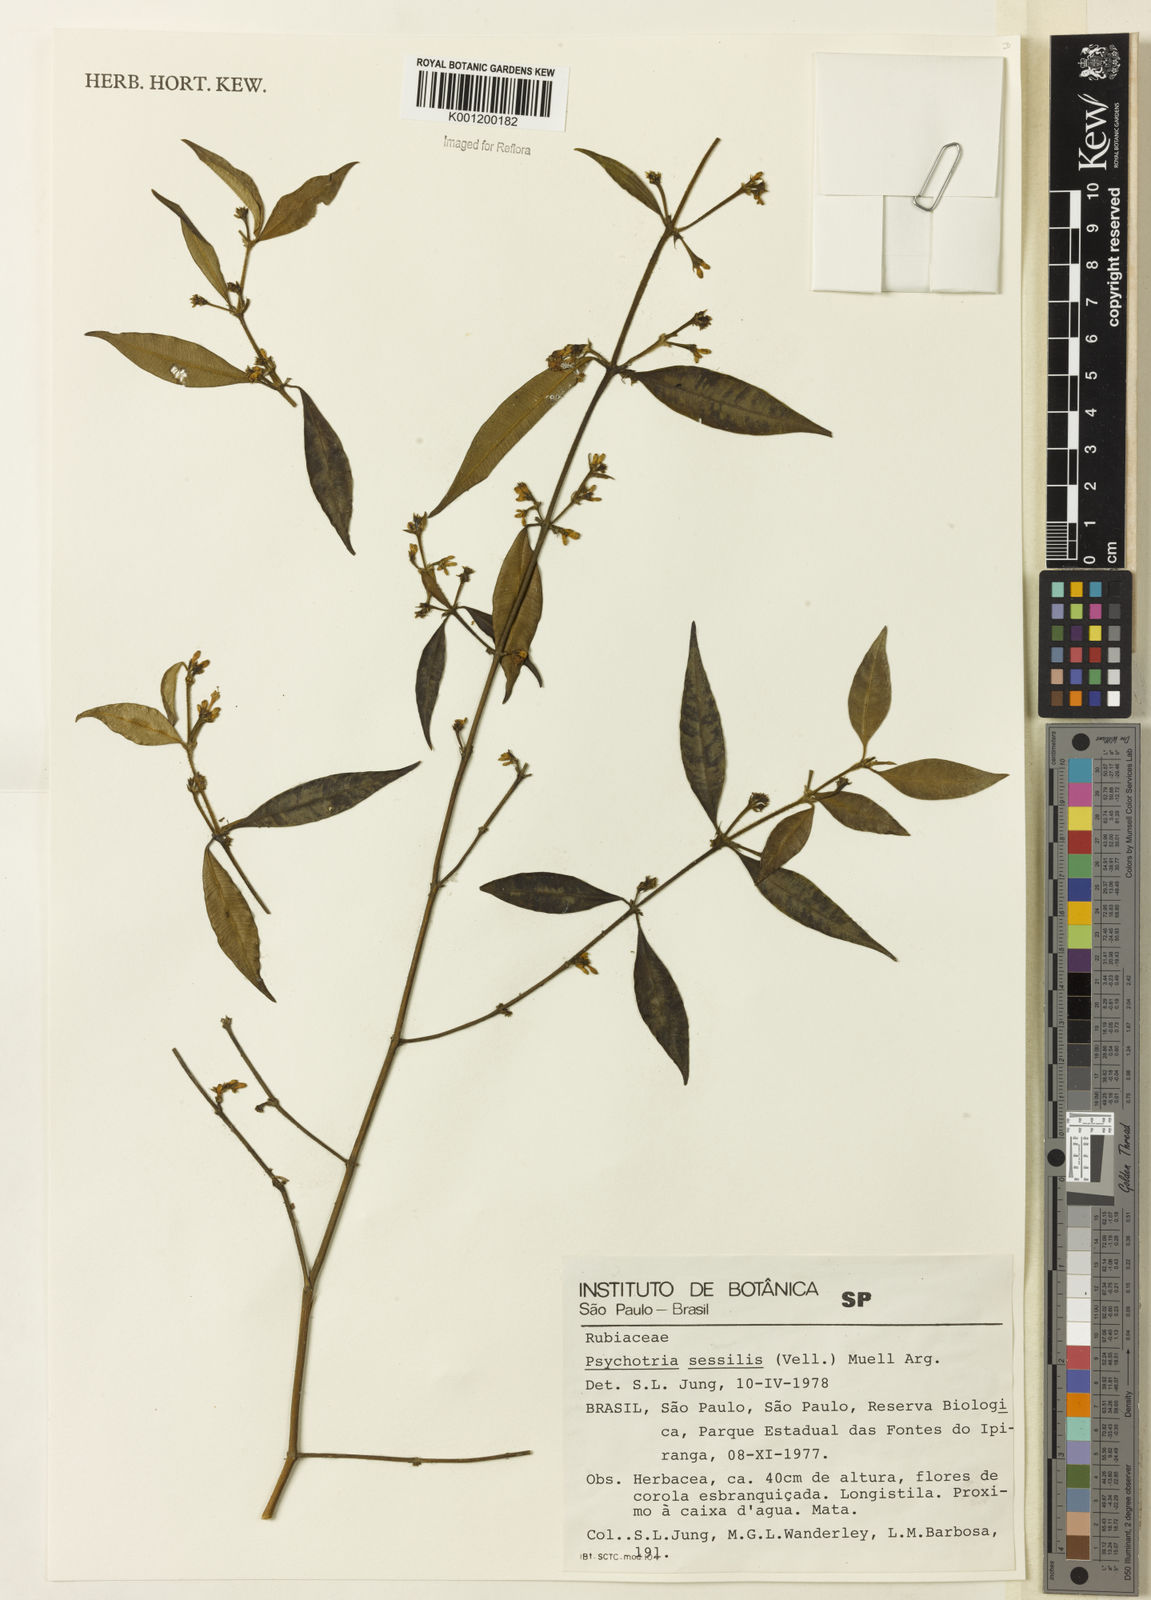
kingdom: Plantae
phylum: Tracheophyta
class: Magnoliopsida
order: Gentianales
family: Rubiaceae
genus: Rudgea
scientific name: Rudgea sessilis
